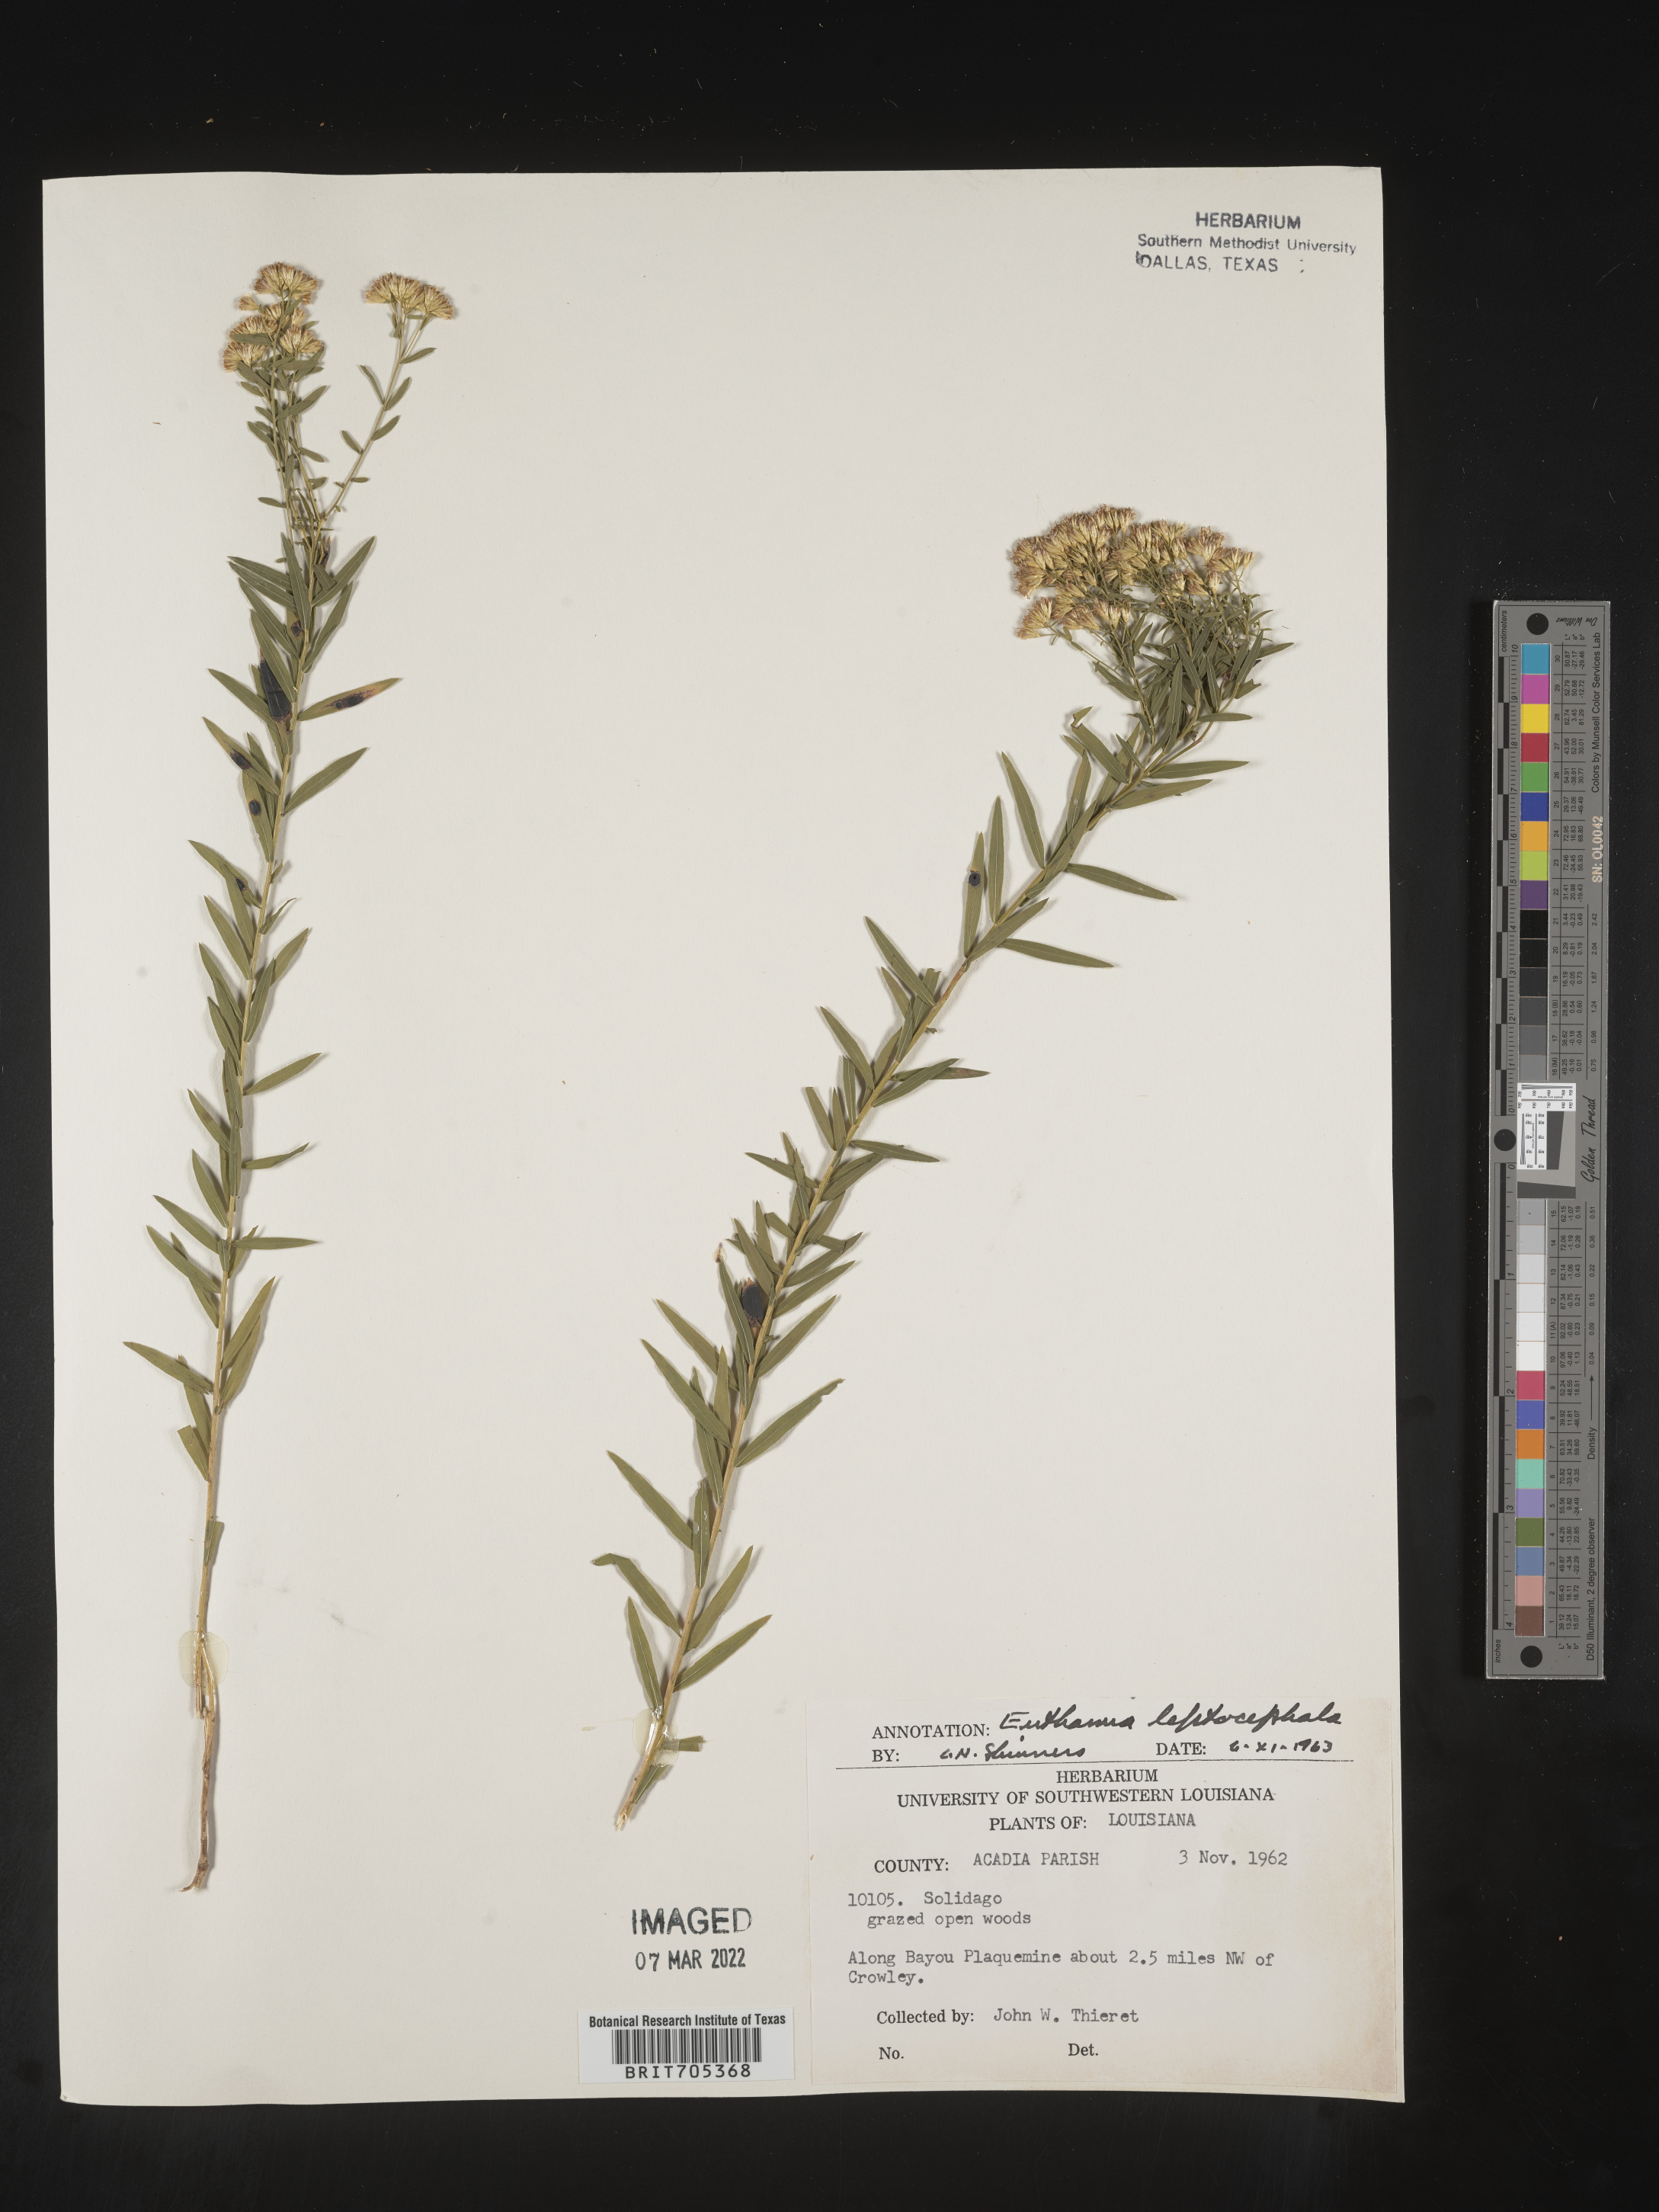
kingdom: Plantae
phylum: Tracheophyta
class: Magnoliopsida
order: Asterales
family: Asteraceae
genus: Euthamia
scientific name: Euthamia leptocephala
